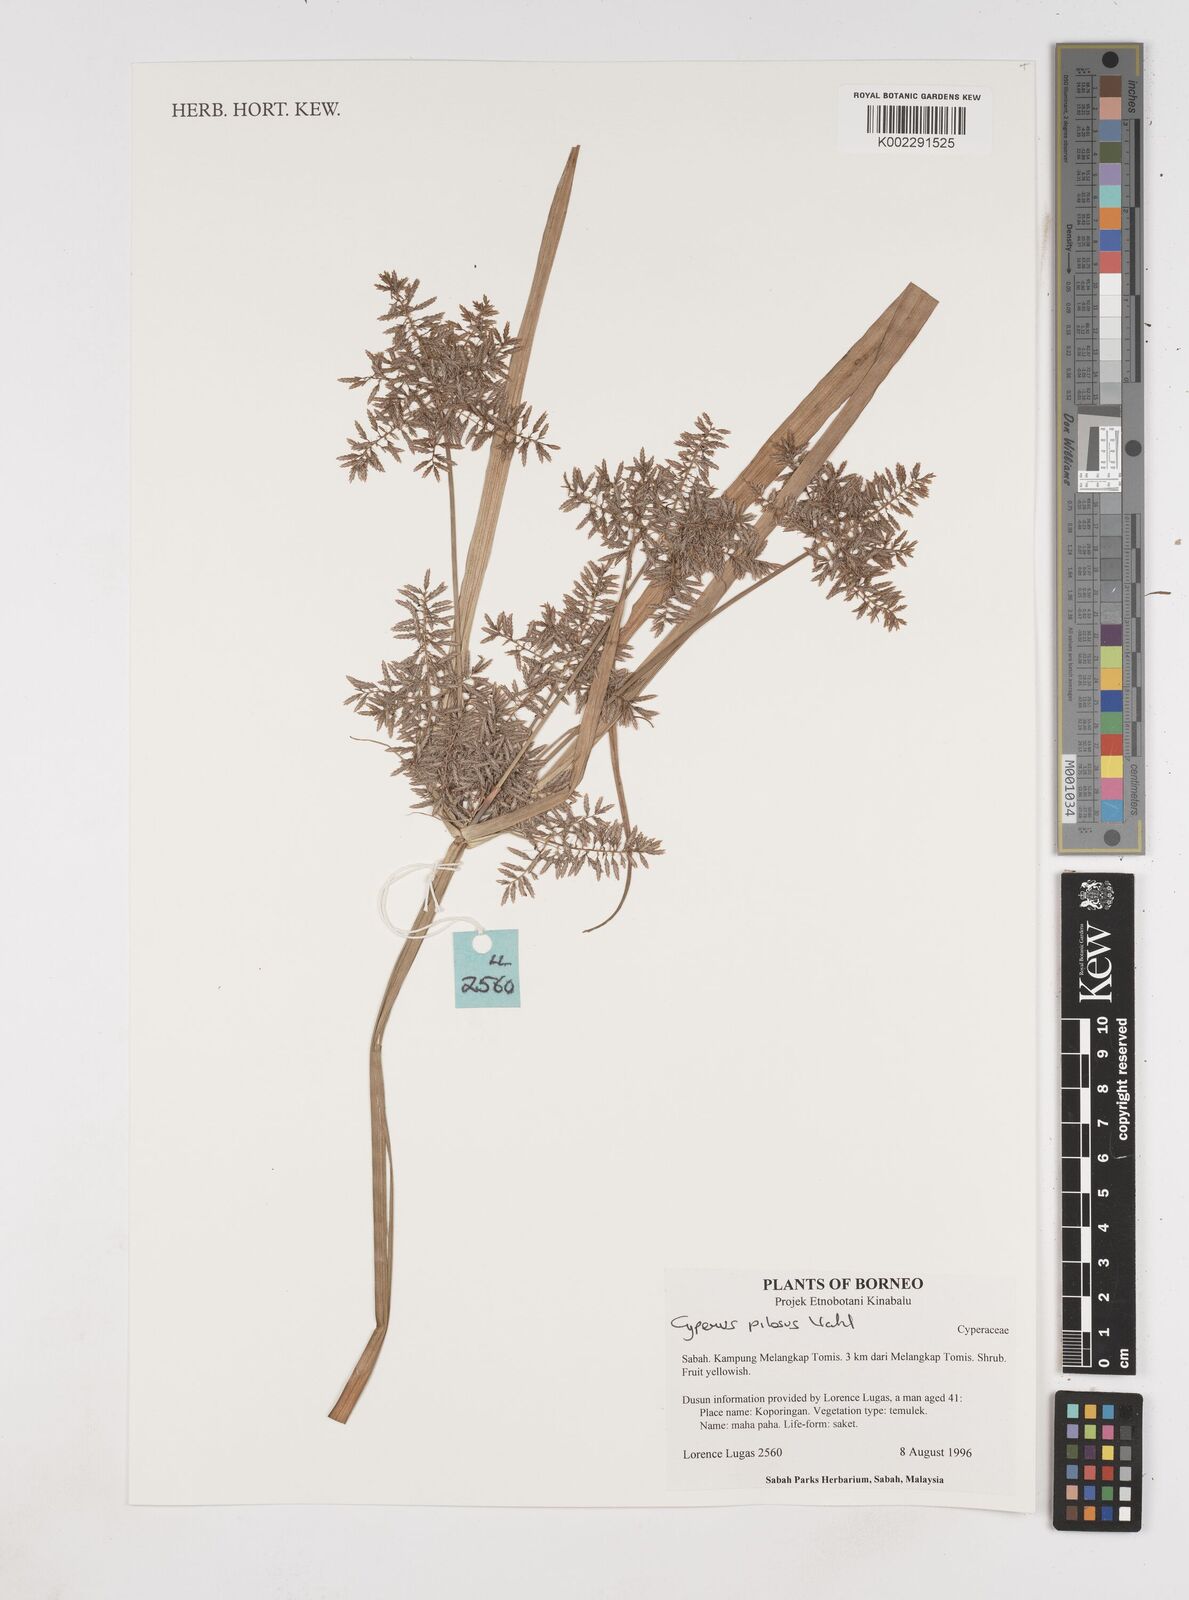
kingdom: Plantae
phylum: Tracheophyta
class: Liliopsida
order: Poales
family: Cyperaceae
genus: Cyperus
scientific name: Cyperus pilosus
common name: Fuzzy flatsedge
